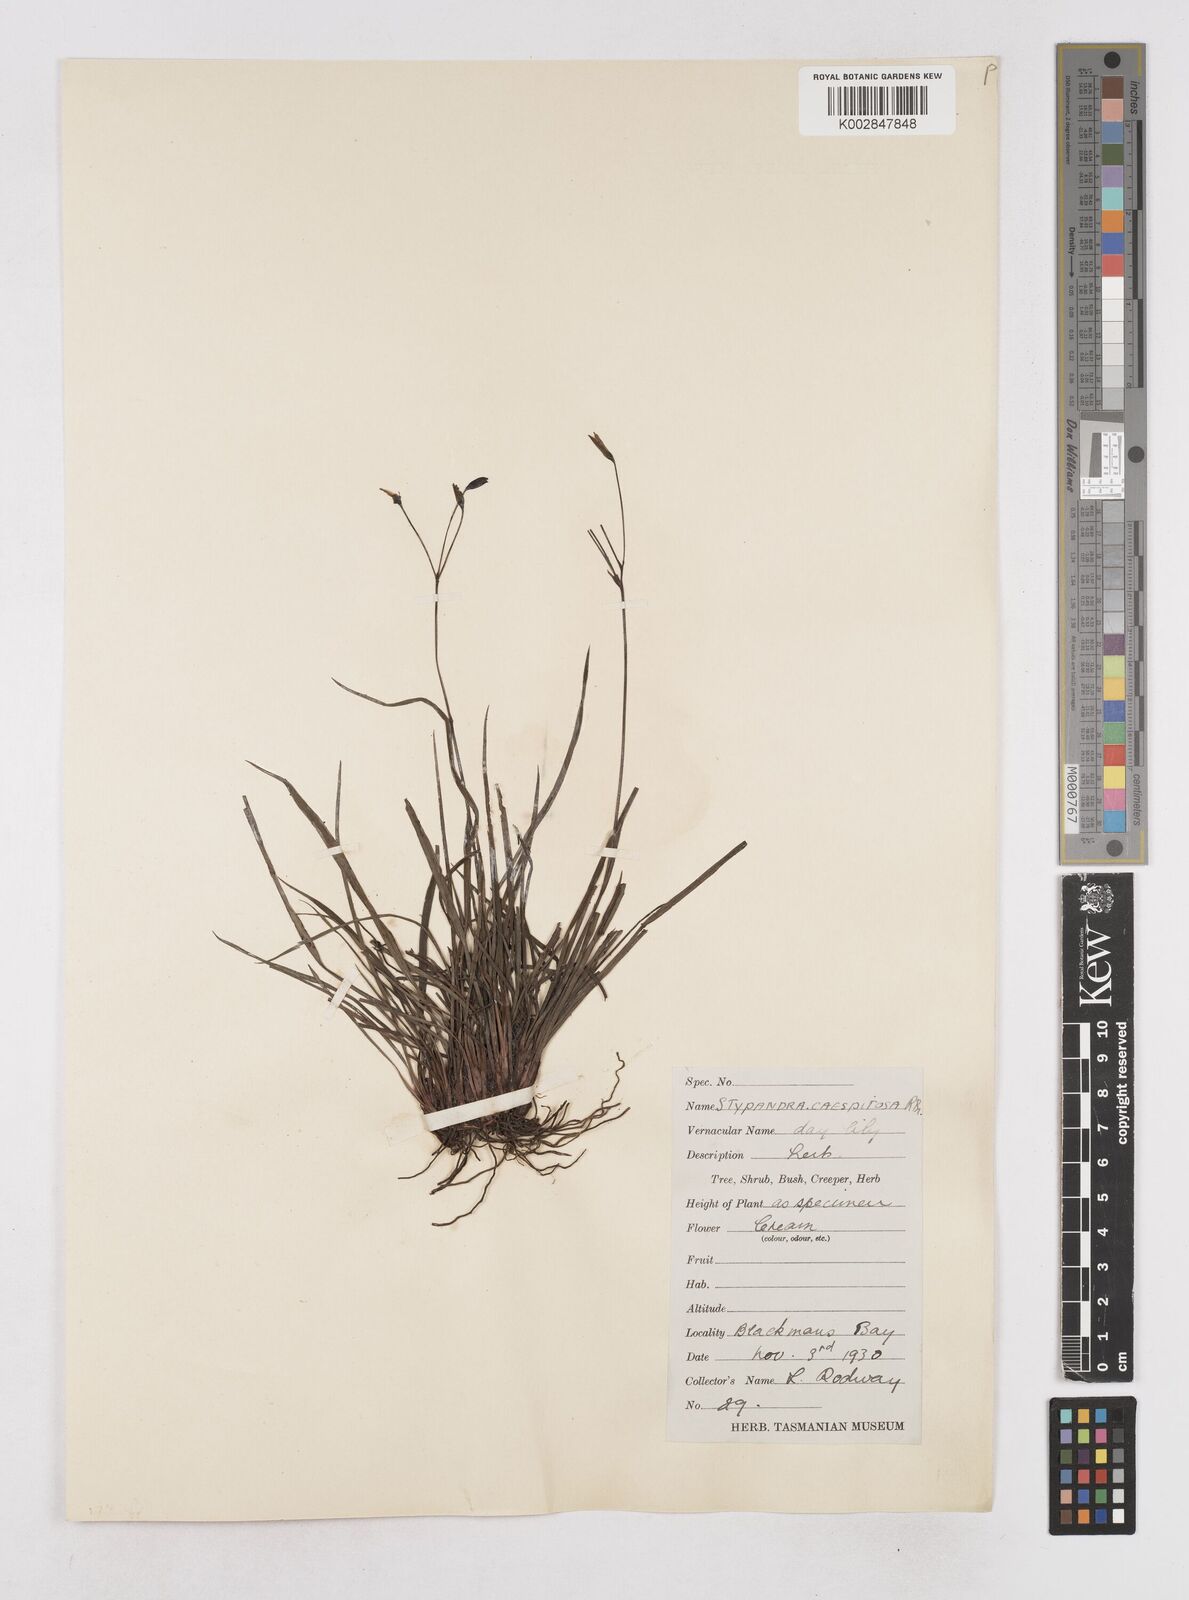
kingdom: Plantae
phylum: Tracheophyta
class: Liliopsida
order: Asparagales
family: Asphodelaceae
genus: Thelionema
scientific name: Thelionema caespitosum
